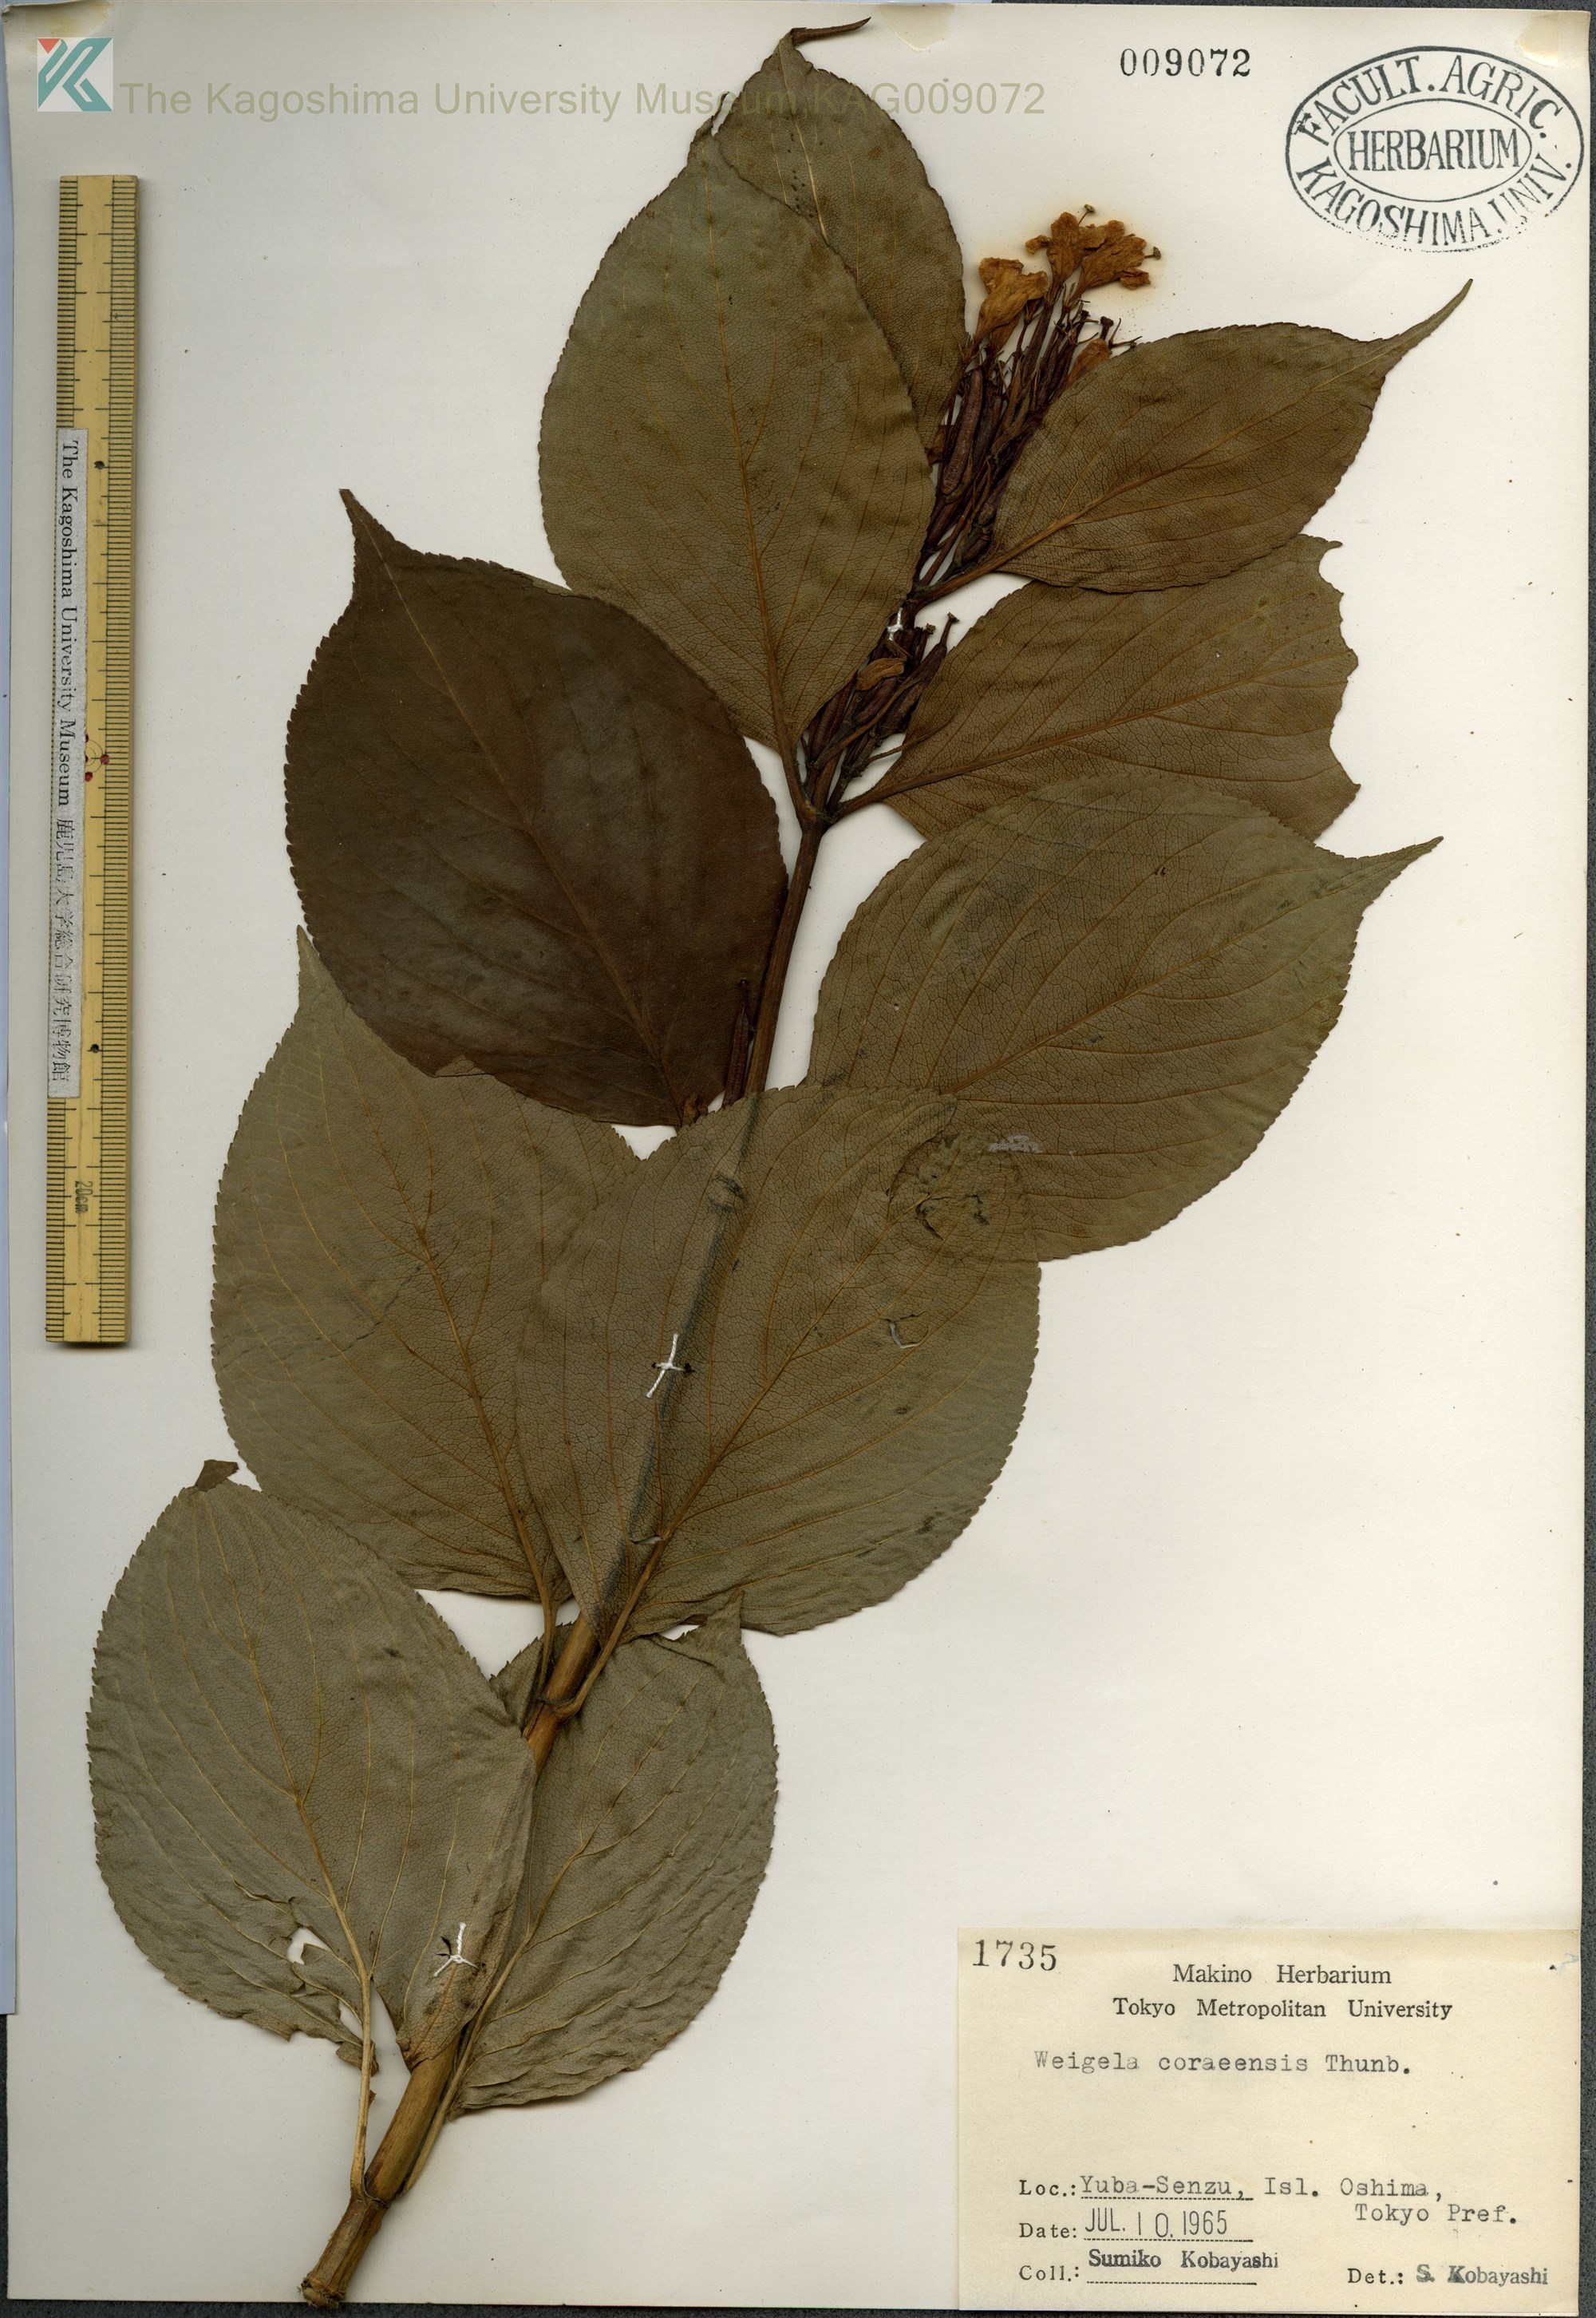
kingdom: Plantae
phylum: Tracheophyta
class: Magnoliopsida
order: Dipsacales
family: Caprifoliaceae
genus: Weigela
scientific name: Weigela
